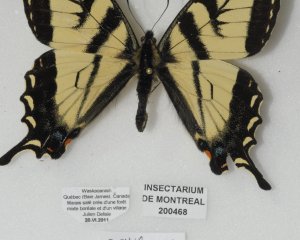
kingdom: Animalia
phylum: Arthropoda
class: Insecta
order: Lepidoptera
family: Papilionidae
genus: Pterourus
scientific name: Pterourus canadensis
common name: Canadian Tiger Swallowtail
